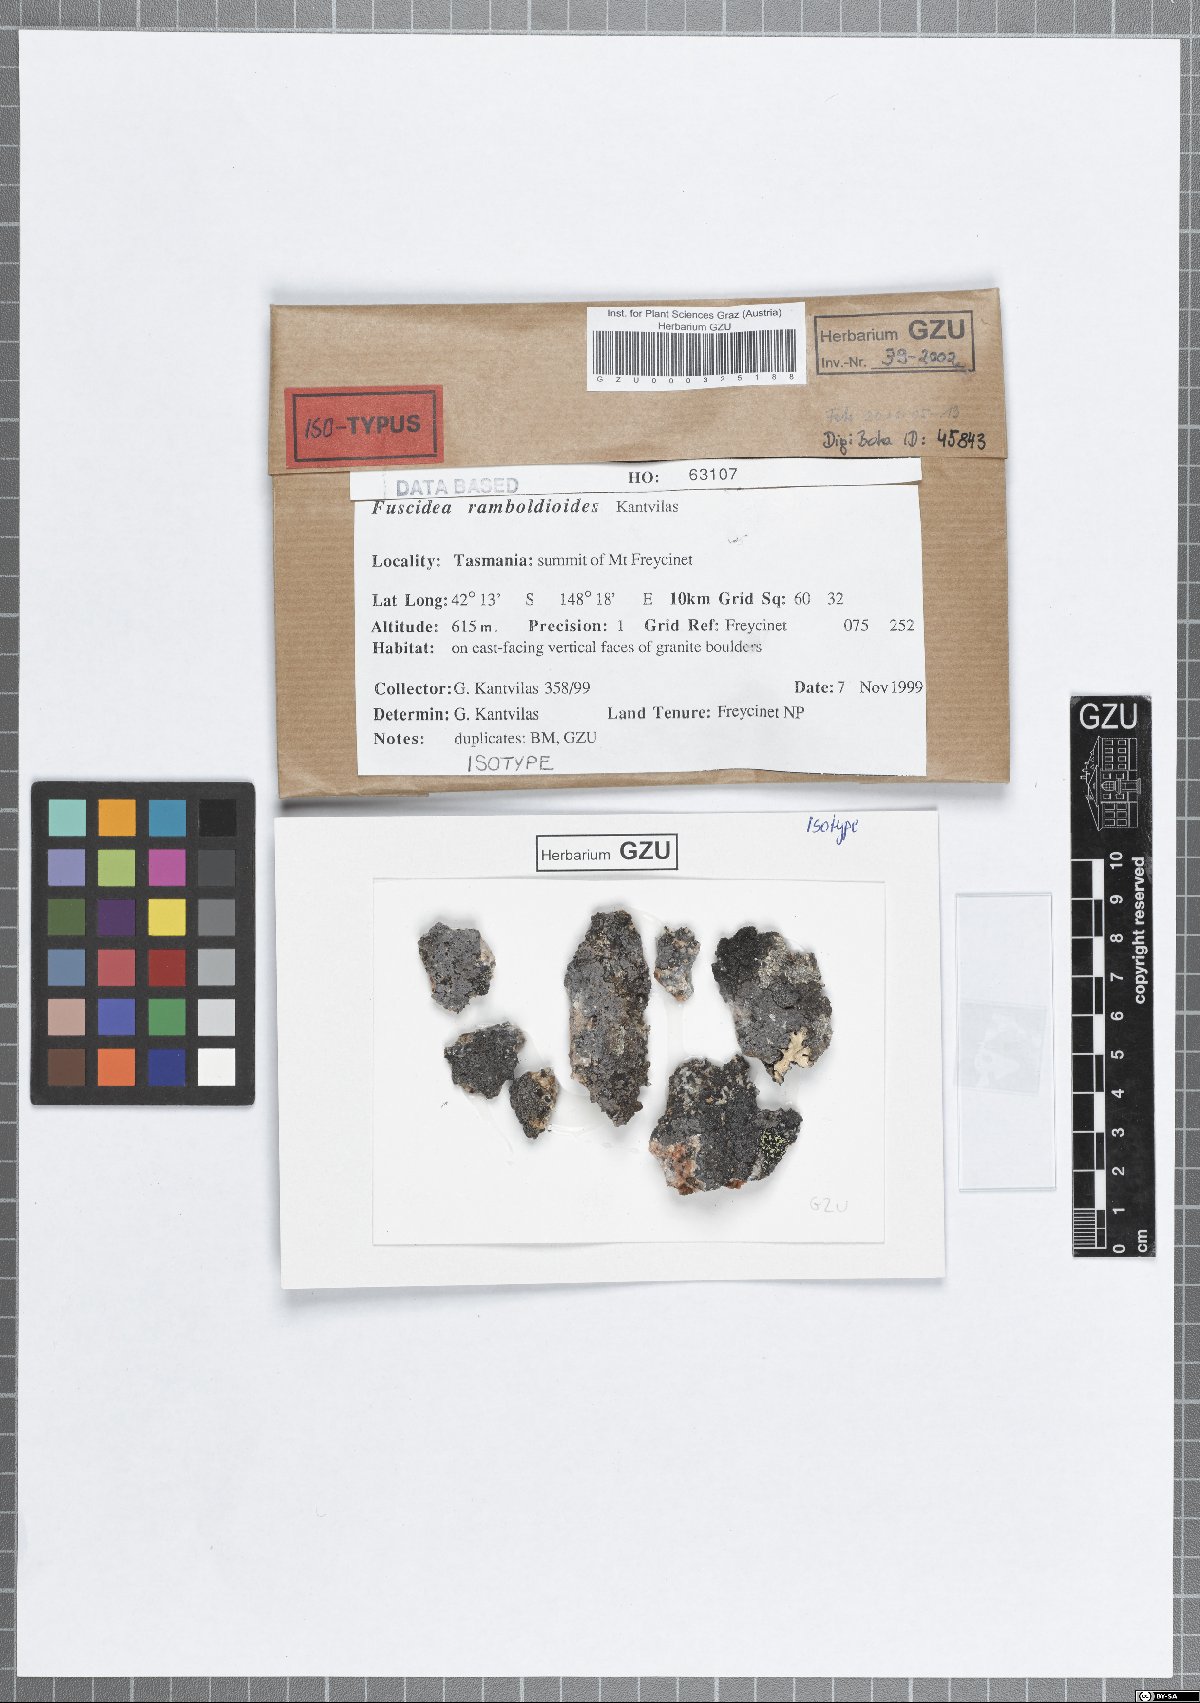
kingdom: Fungi
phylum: Ascomycota
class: Lecanoromycetes
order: Umbilicariales
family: Fuscideaceae
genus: Fuscidea
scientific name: Fuscidea ramboldioides
